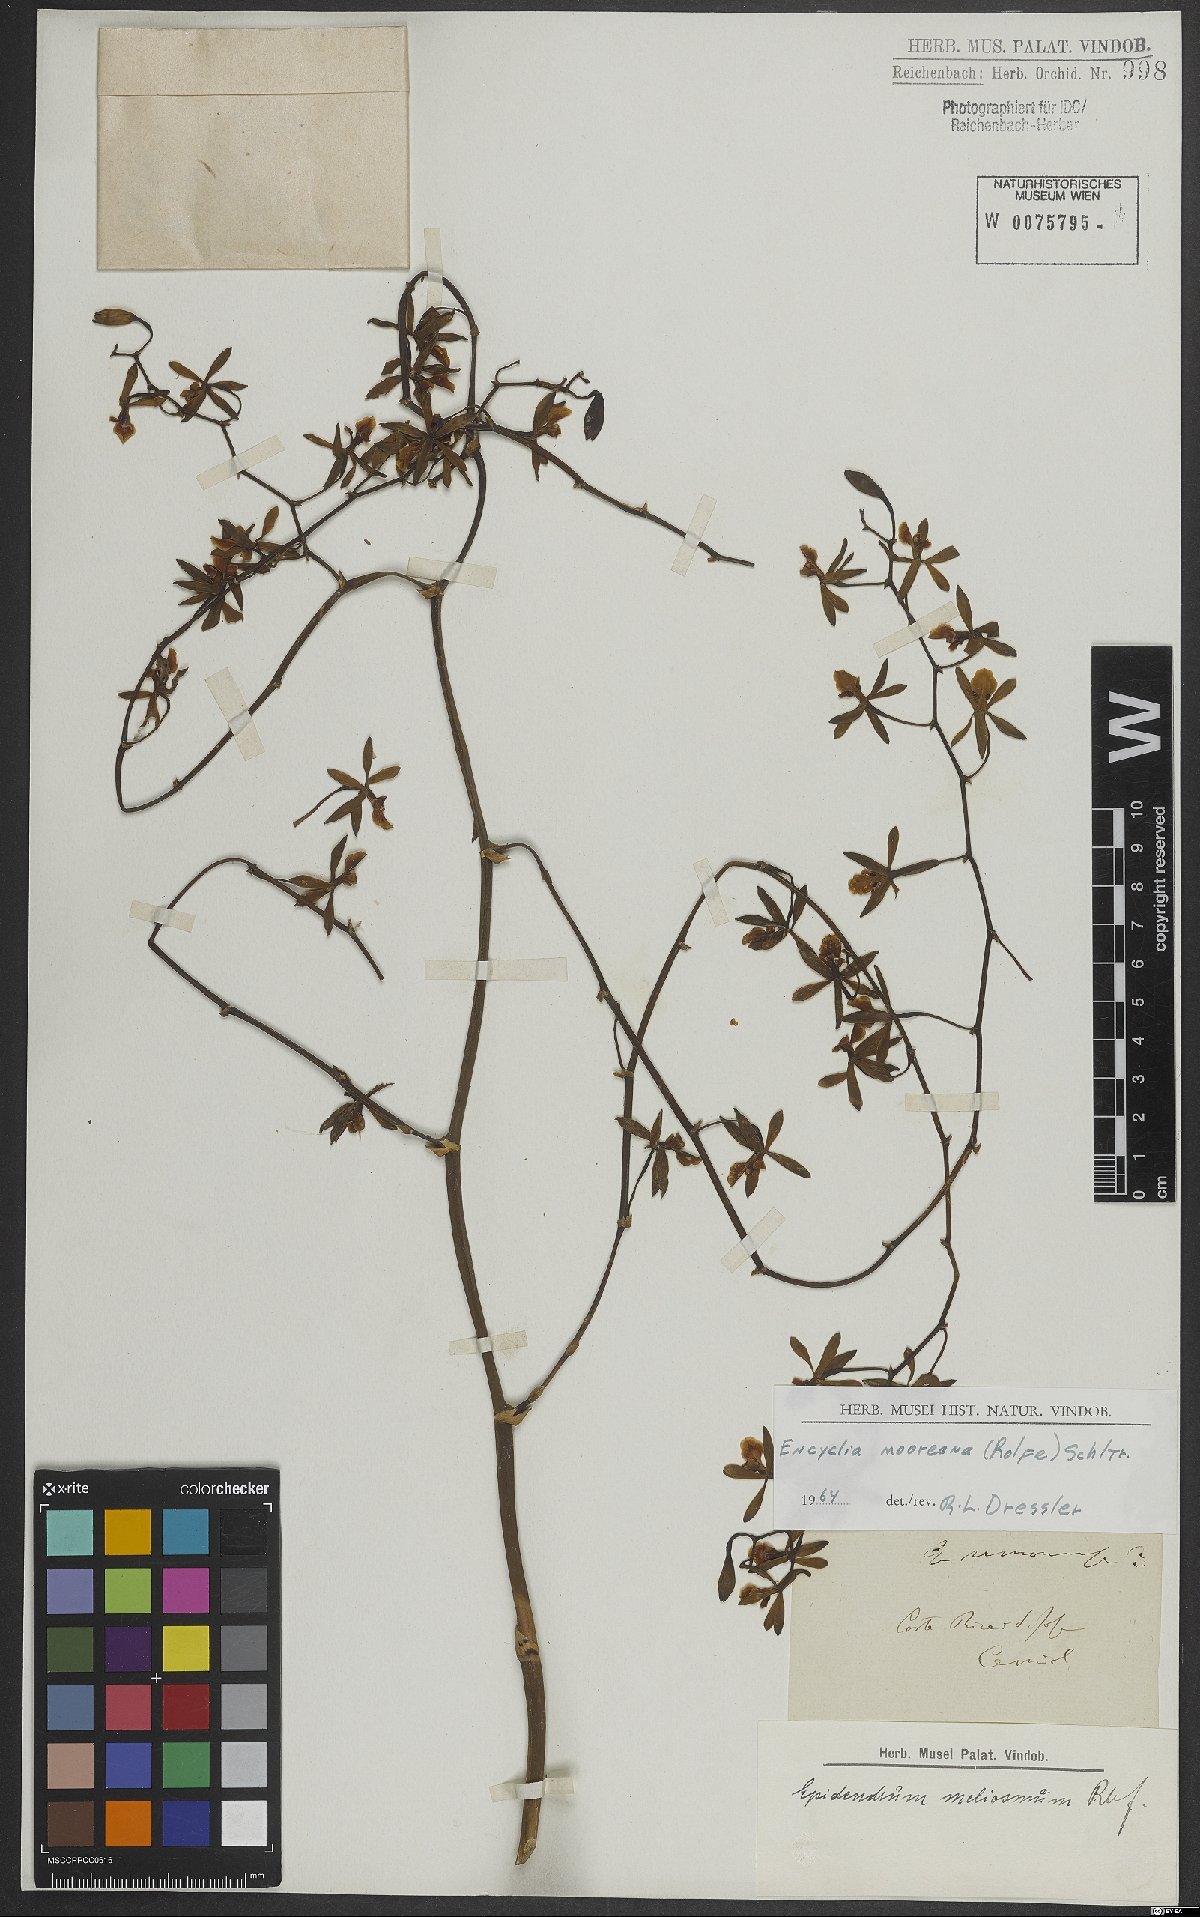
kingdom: Plantae
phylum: Tracheophyta
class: Liliopsida
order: Asparagales
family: Orchidaceae
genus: Encyclia
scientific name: Encyclia mooreana
